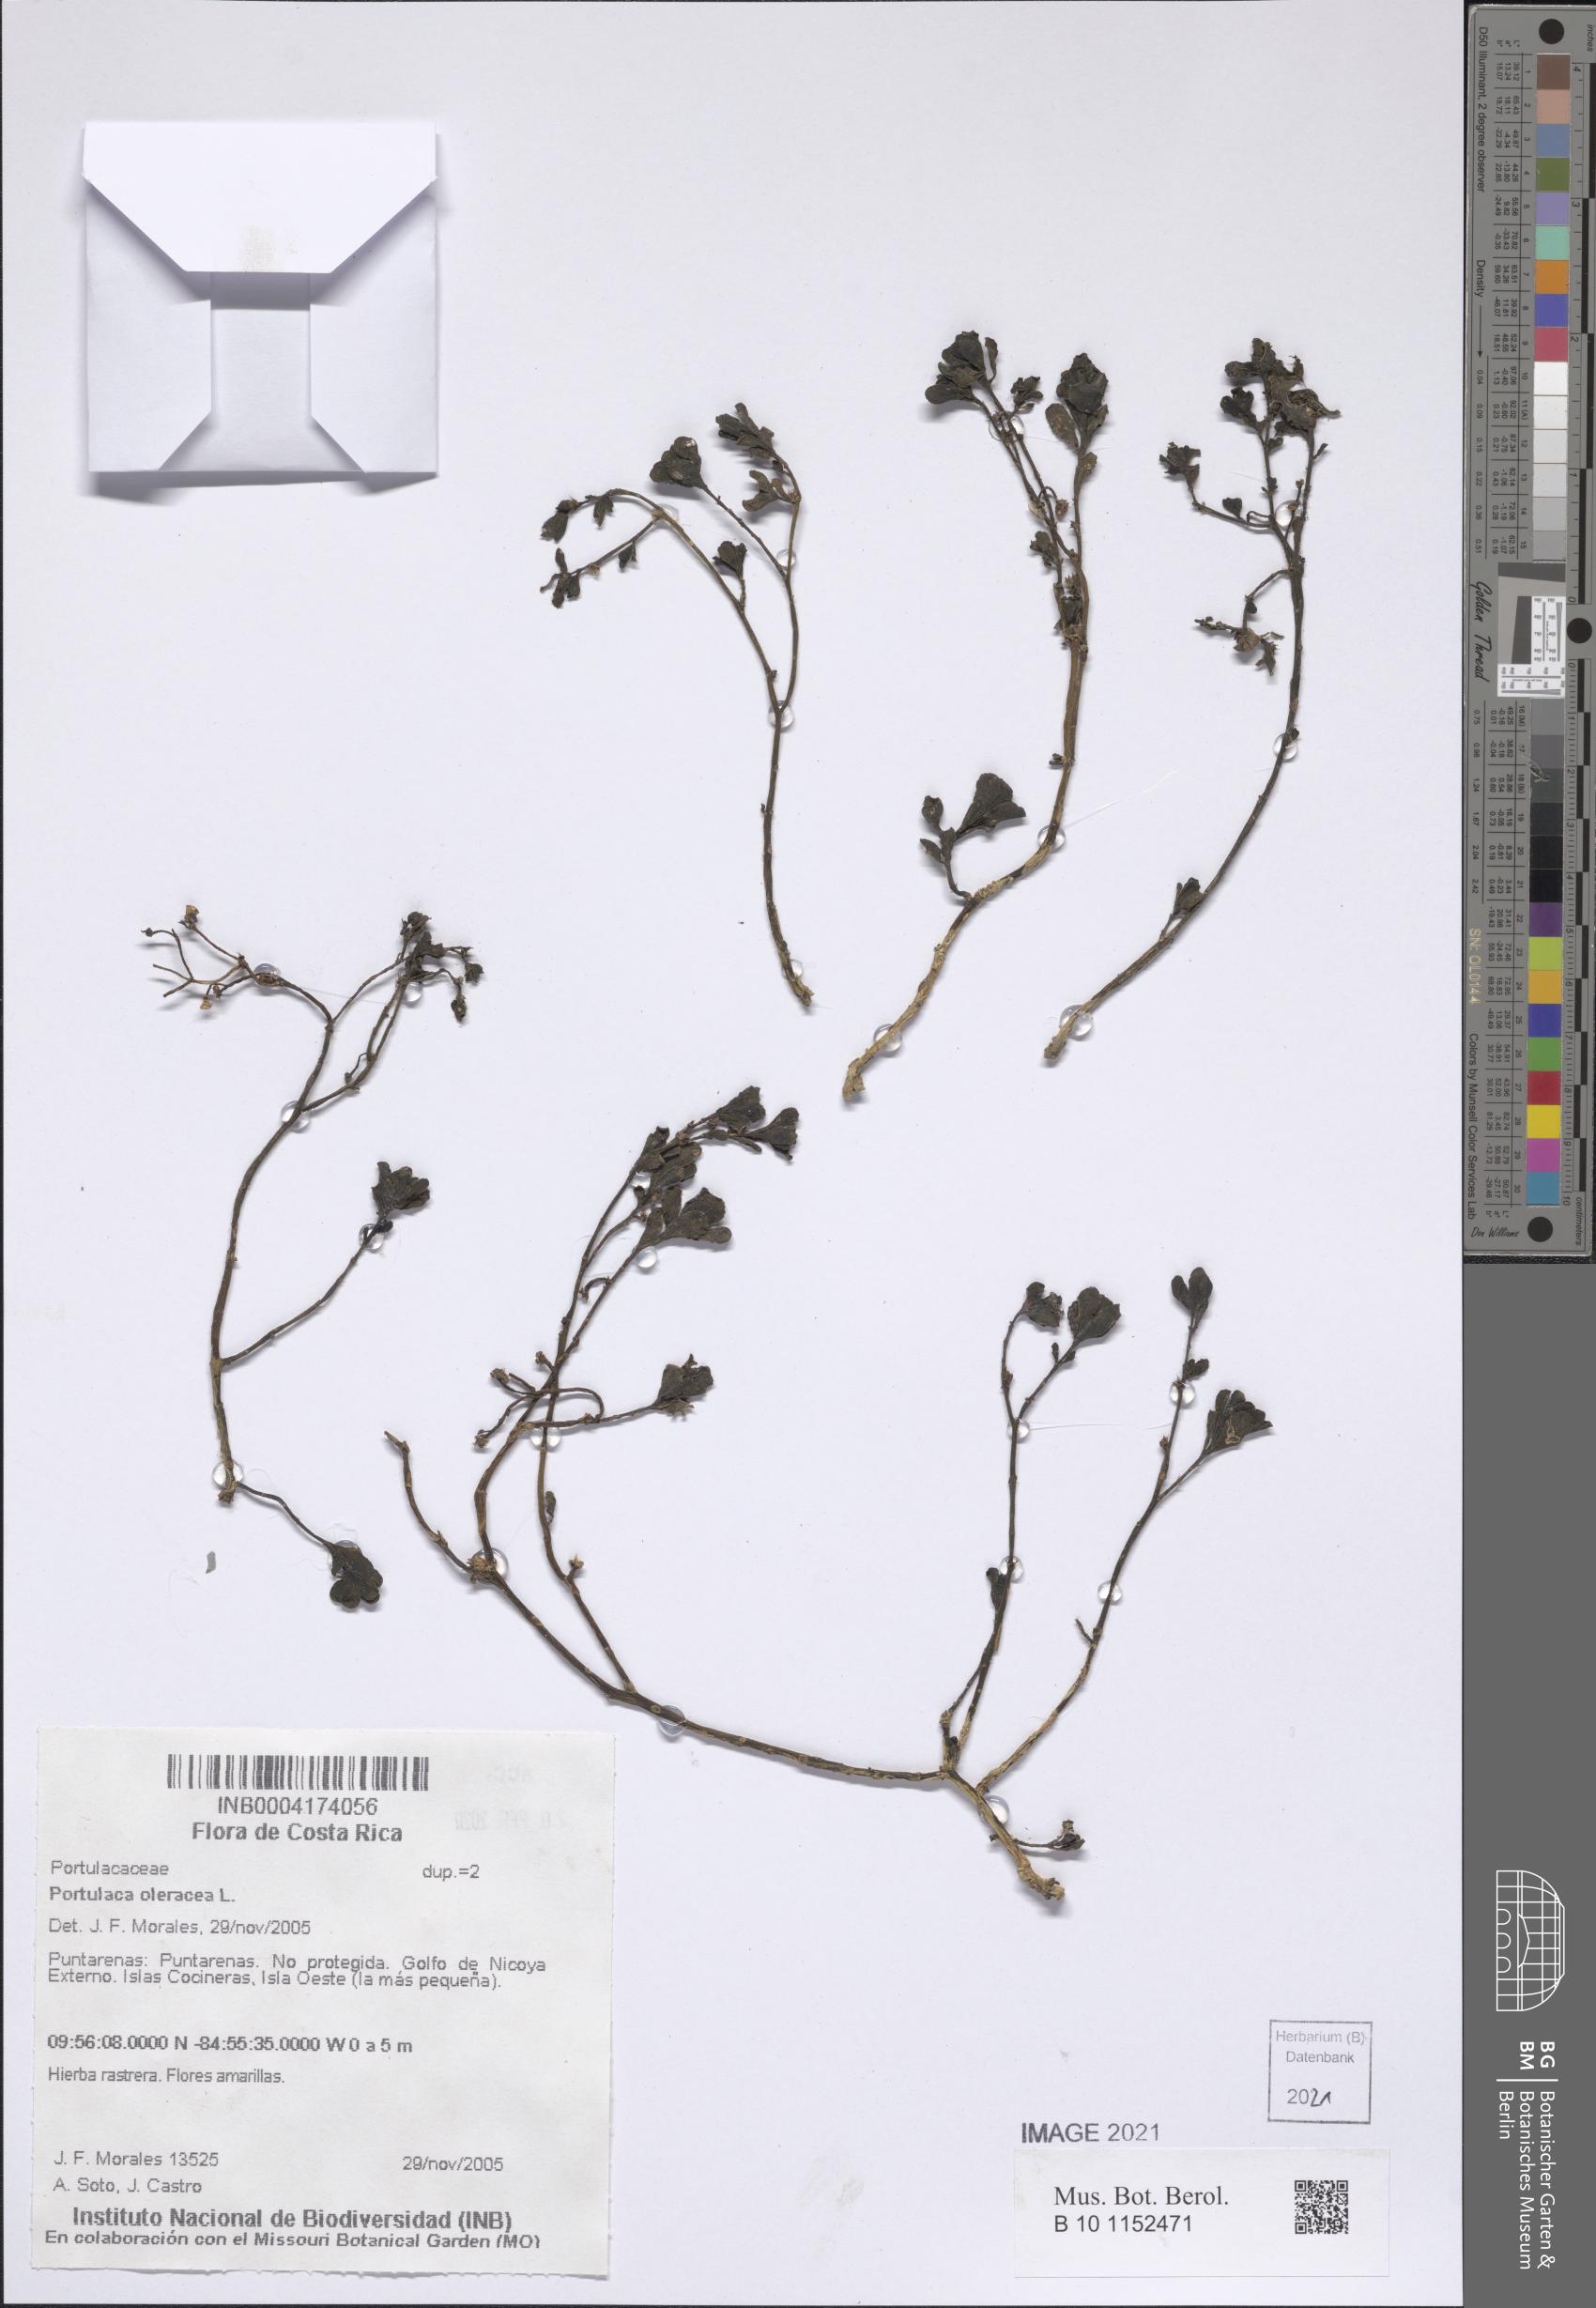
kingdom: Plantae
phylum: Tracheophyta
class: Magnoliopsida
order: Caryophyllales
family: Portulacaceae
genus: Portulaca
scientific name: Portulaca oleracea
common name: Common purslane
